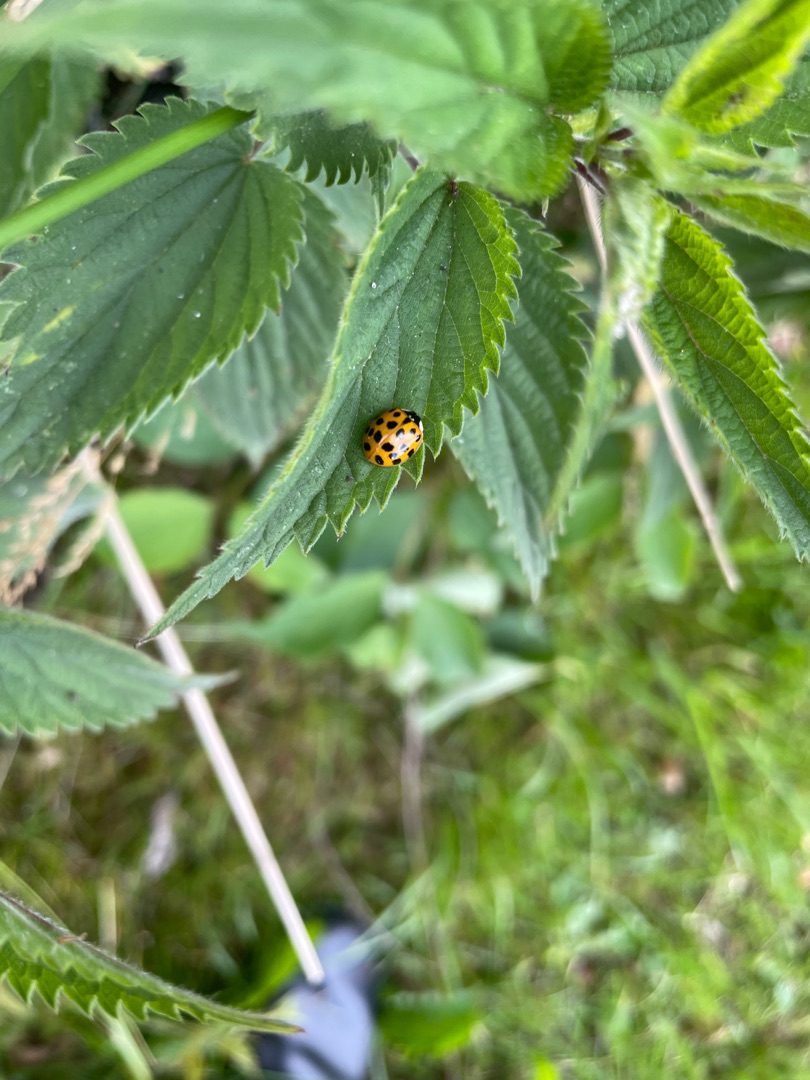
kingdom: Animalia
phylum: Arthropoda
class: Insecta
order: Coleoptera
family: Coccinellidae
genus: Harmonia
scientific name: Harmonia axyridis
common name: Harlekinmariehøne
